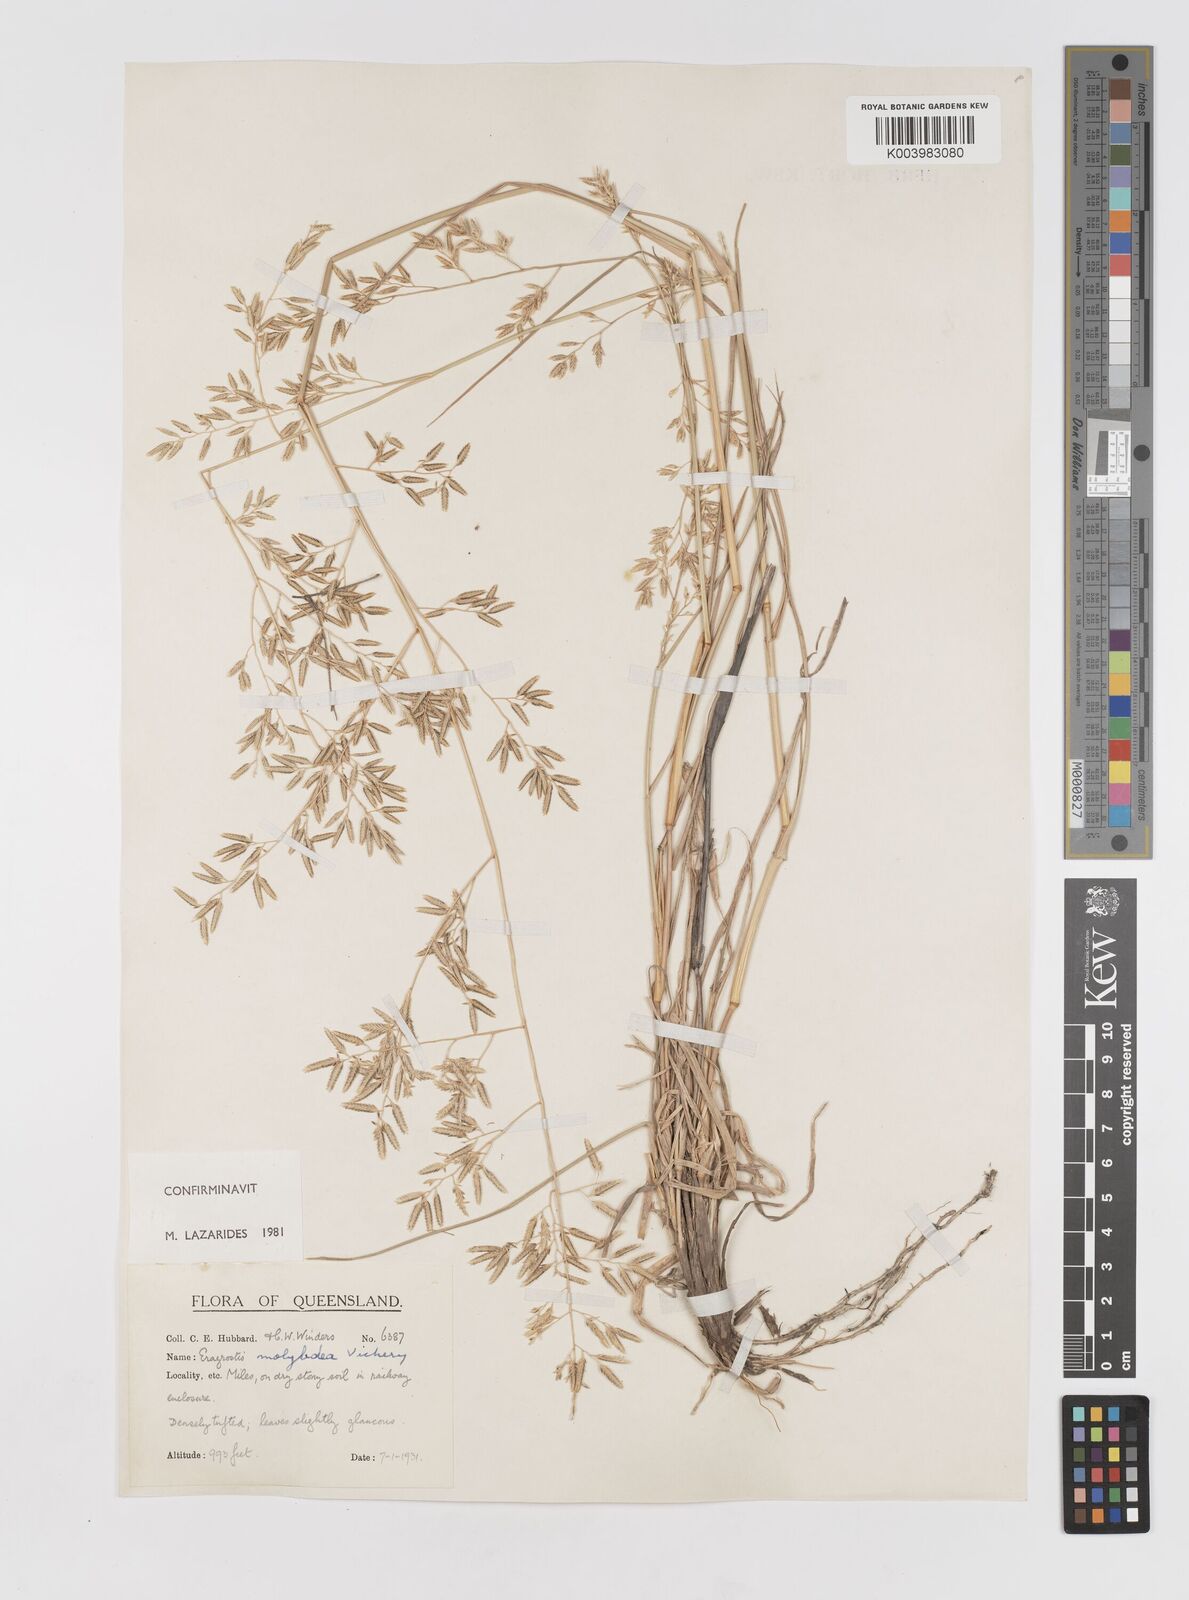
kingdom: Plantae
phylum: Tracheophyta
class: Liliopsida
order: Poales
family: Poaceae
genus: Eragrostis
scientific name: Eragrostis leptostachya
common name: Australian lovegrass
